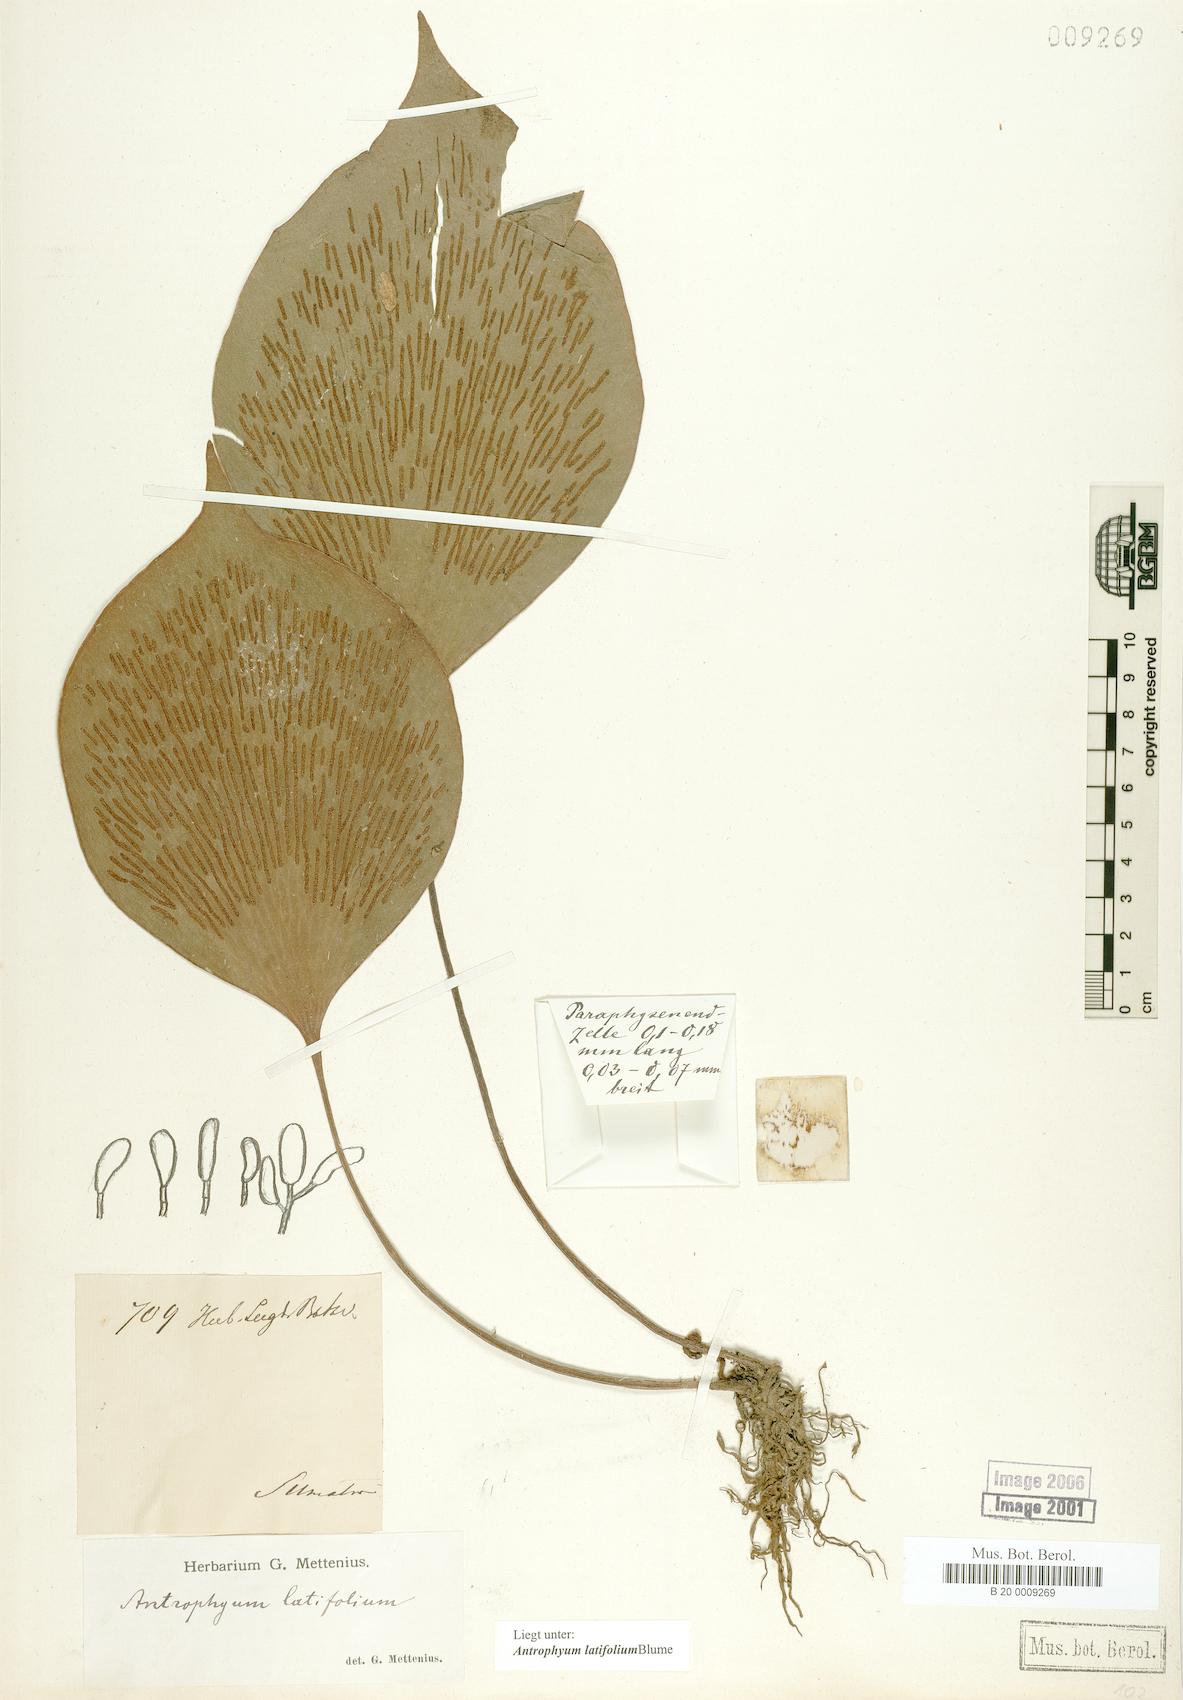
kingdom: Plantae
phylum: Tracheophyta
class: Polypodiopsida
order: Polypodiales
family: Pteridaceae
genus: Antrophyum
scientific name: Antrophyum latifolium
